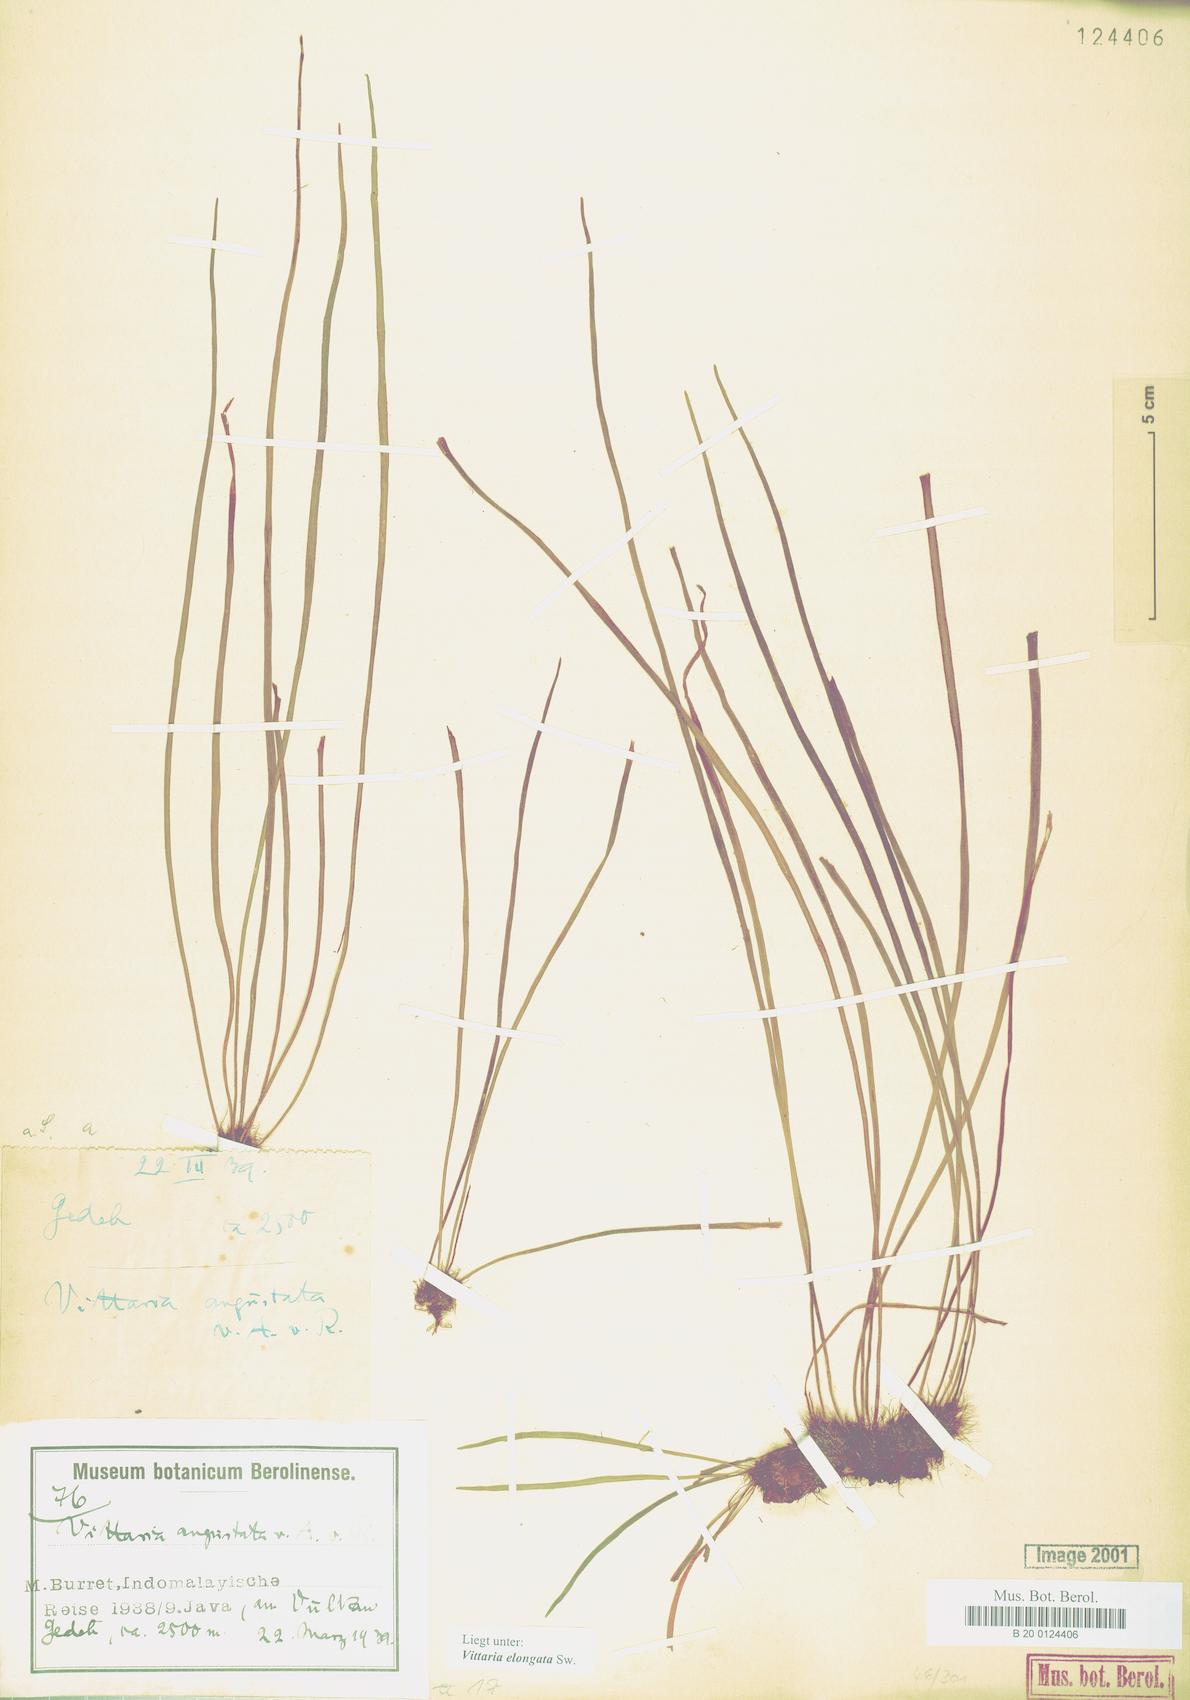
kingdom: Plantae
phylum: Tracheophyta
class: Polypodiopsida
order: Polypodiales
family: Pteridaceae
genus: Haplopteris
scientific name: Haplopteris elongata
